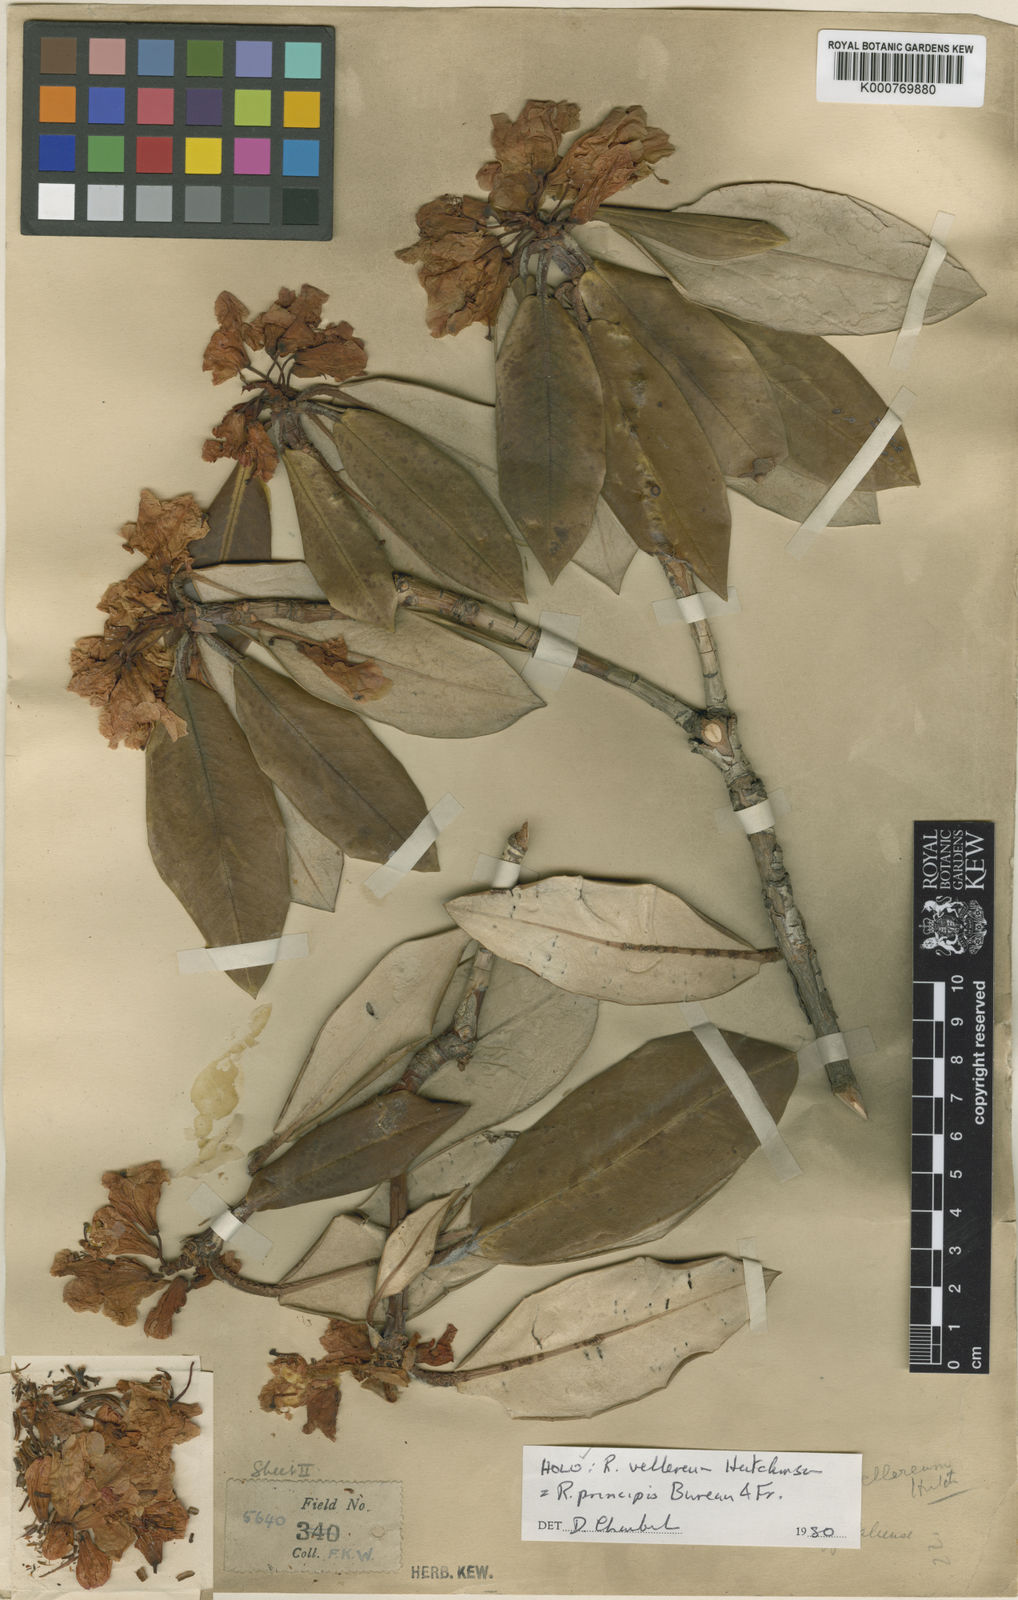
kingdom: Plantae
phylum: Tracheophyta
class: Magnoliopsida
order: Ericales
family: Ericaceae
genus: Rhododendron
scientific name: Rhododendron principis
